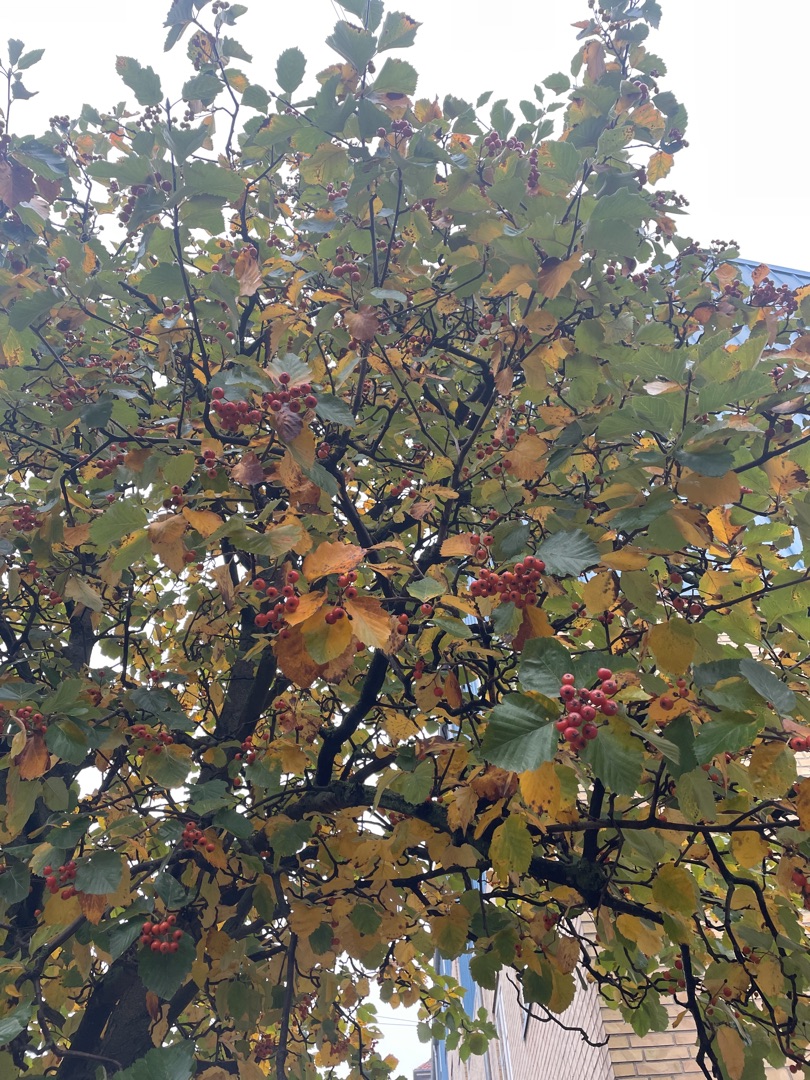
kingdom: Plantae
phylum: Tracheophyta
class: Magnoliopsida
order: Rosales
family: Rosaceae
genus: Karpatiosorbus
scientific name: Karpatiosorbus latifolia
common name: Bredbladet røn
